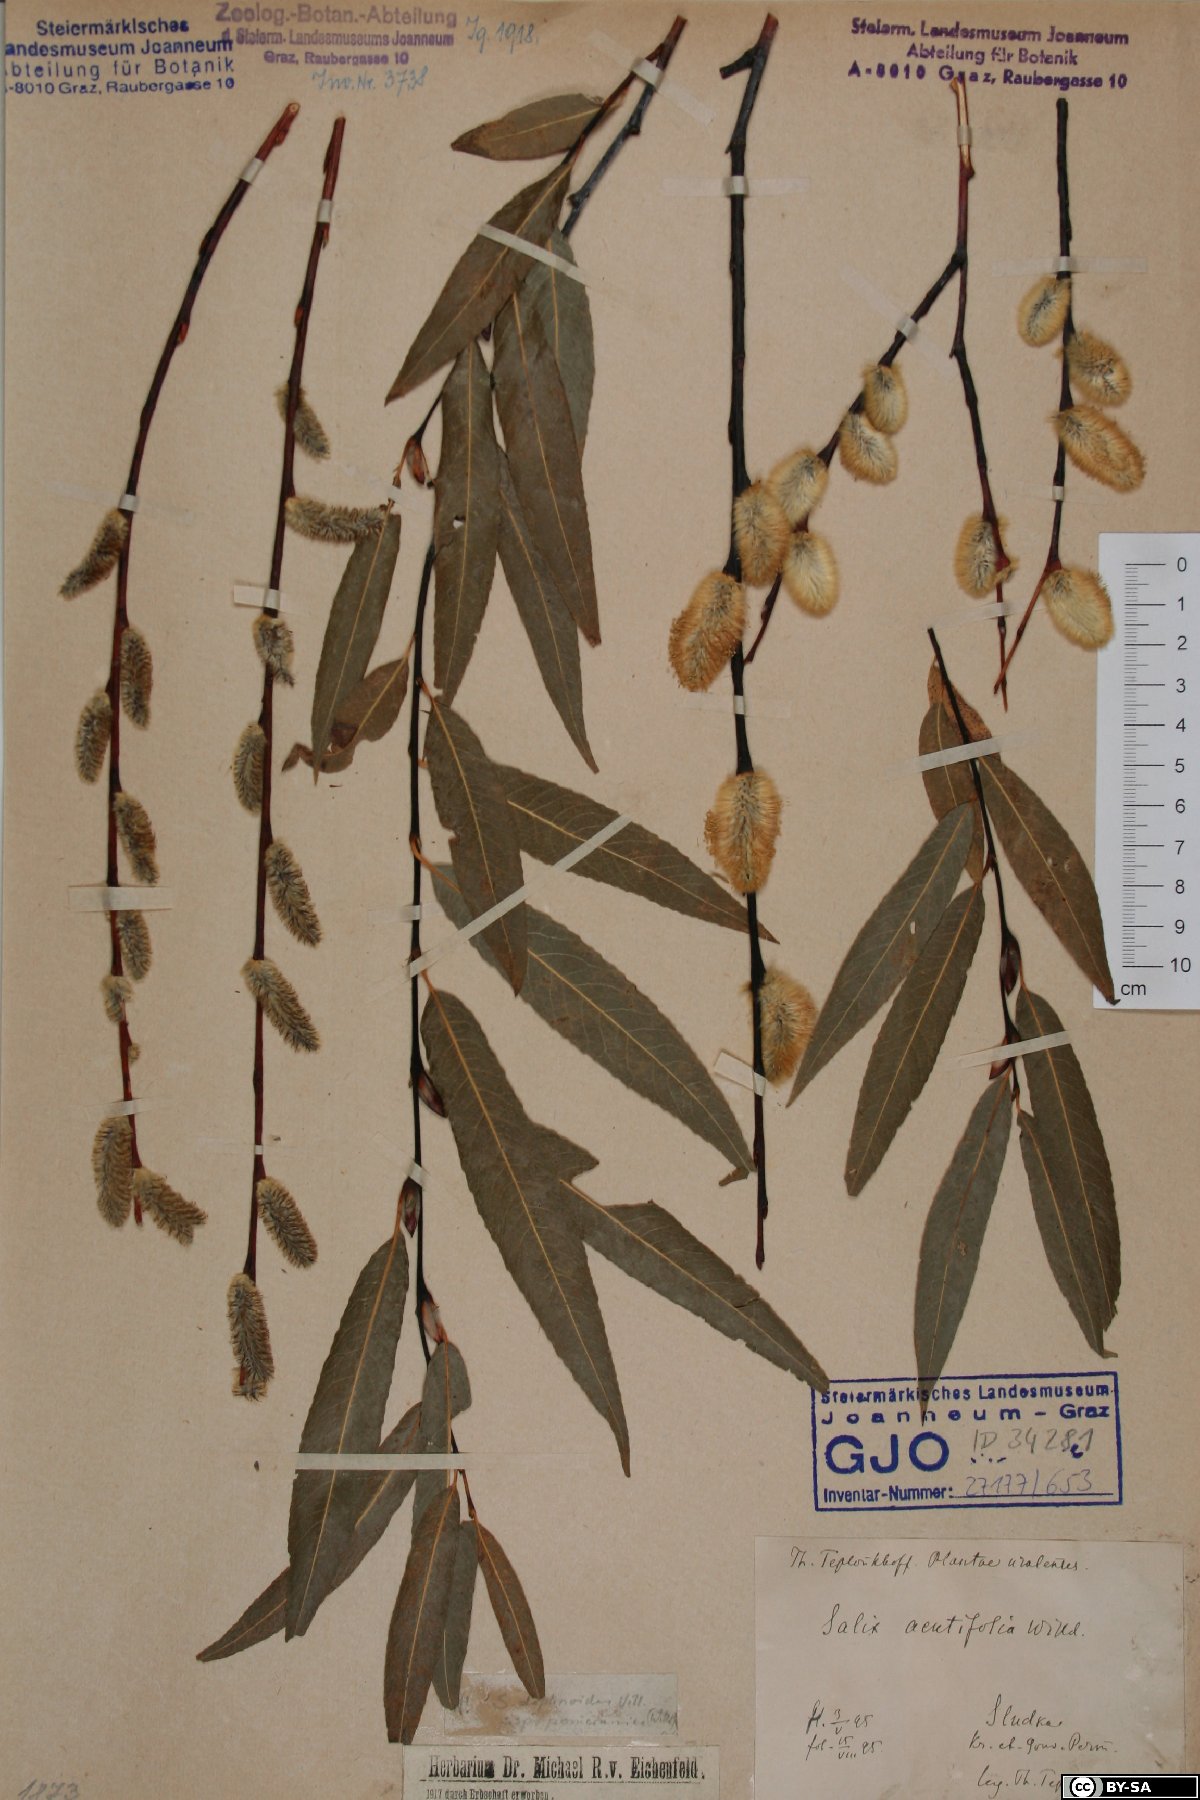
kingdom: Plantae
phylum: Tracheophyta
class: Magnoliopsida
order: Malpighiales
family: Salicaceae
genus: Salix
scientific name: Salix daphnoides
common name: European violet-willow
